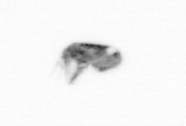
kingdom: Animalia
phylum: Arthropoda
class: Copepoda
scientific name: Copepoda
